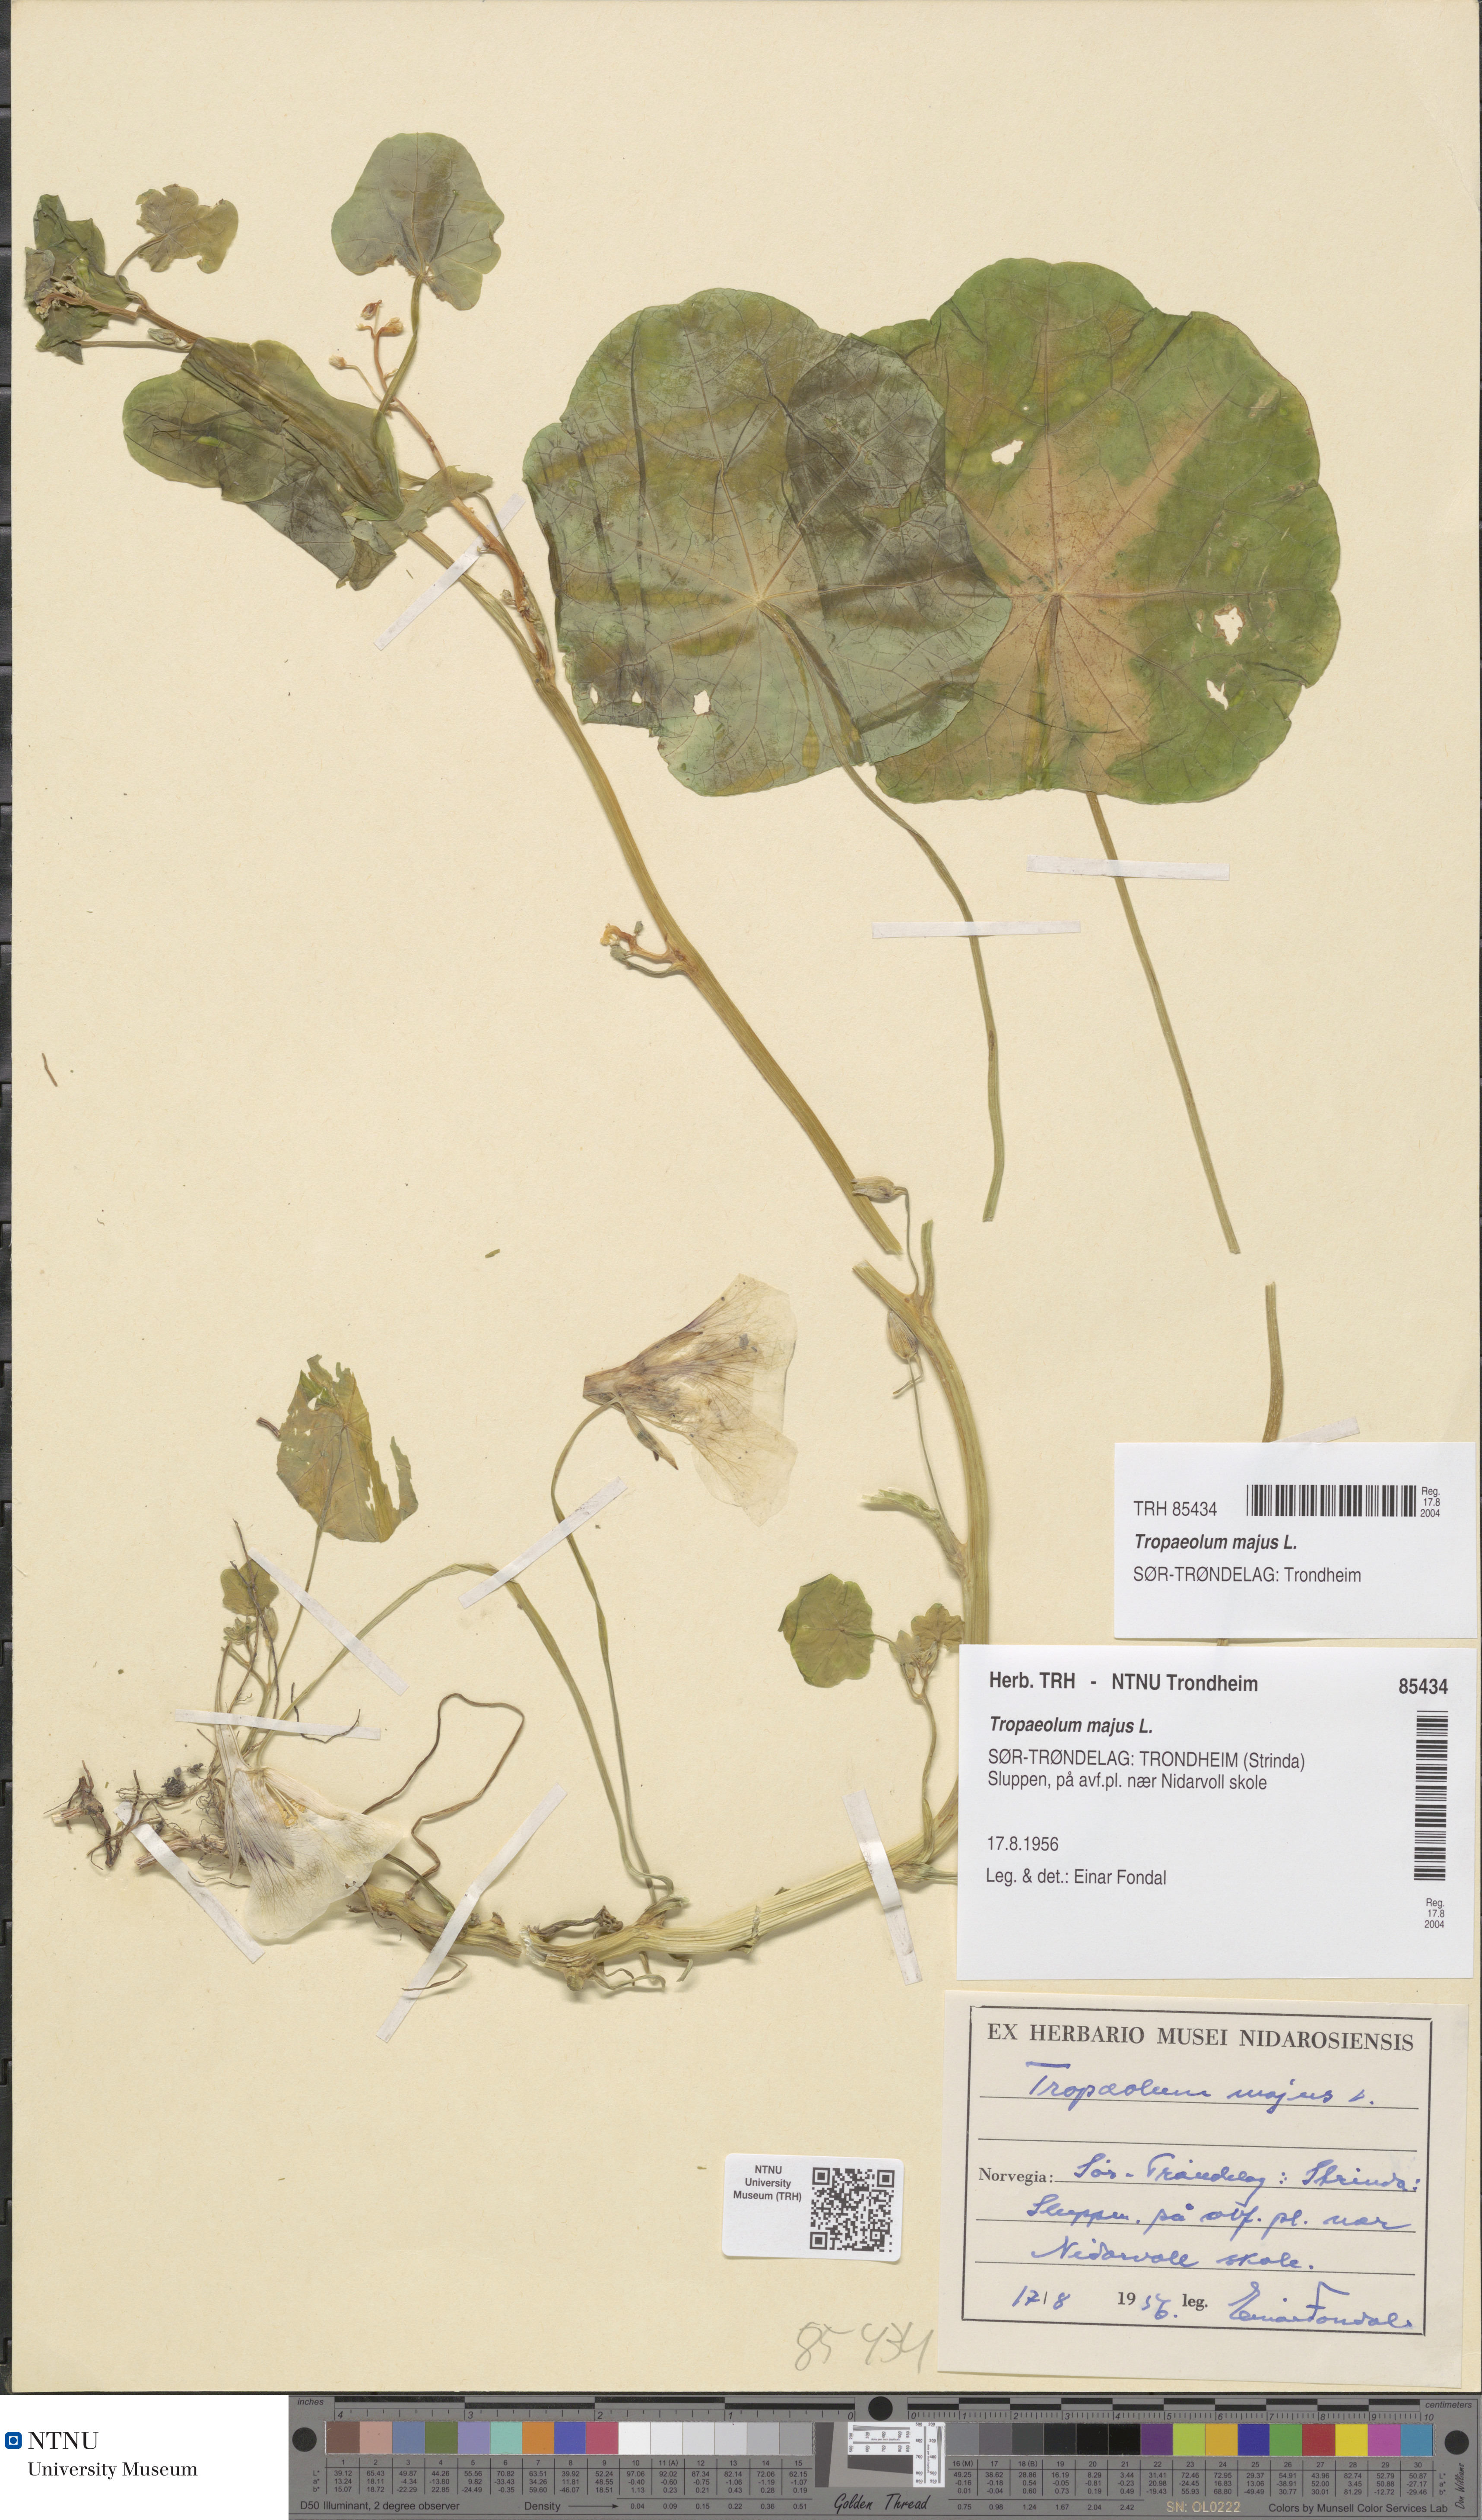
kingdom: Plantae
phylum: Tracheophyta
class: Magnoliopsida
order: Brassicales
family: Tropaeolaceae
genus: Tropaeolum
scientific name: Tropaeolum majus
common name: Nasturtium
